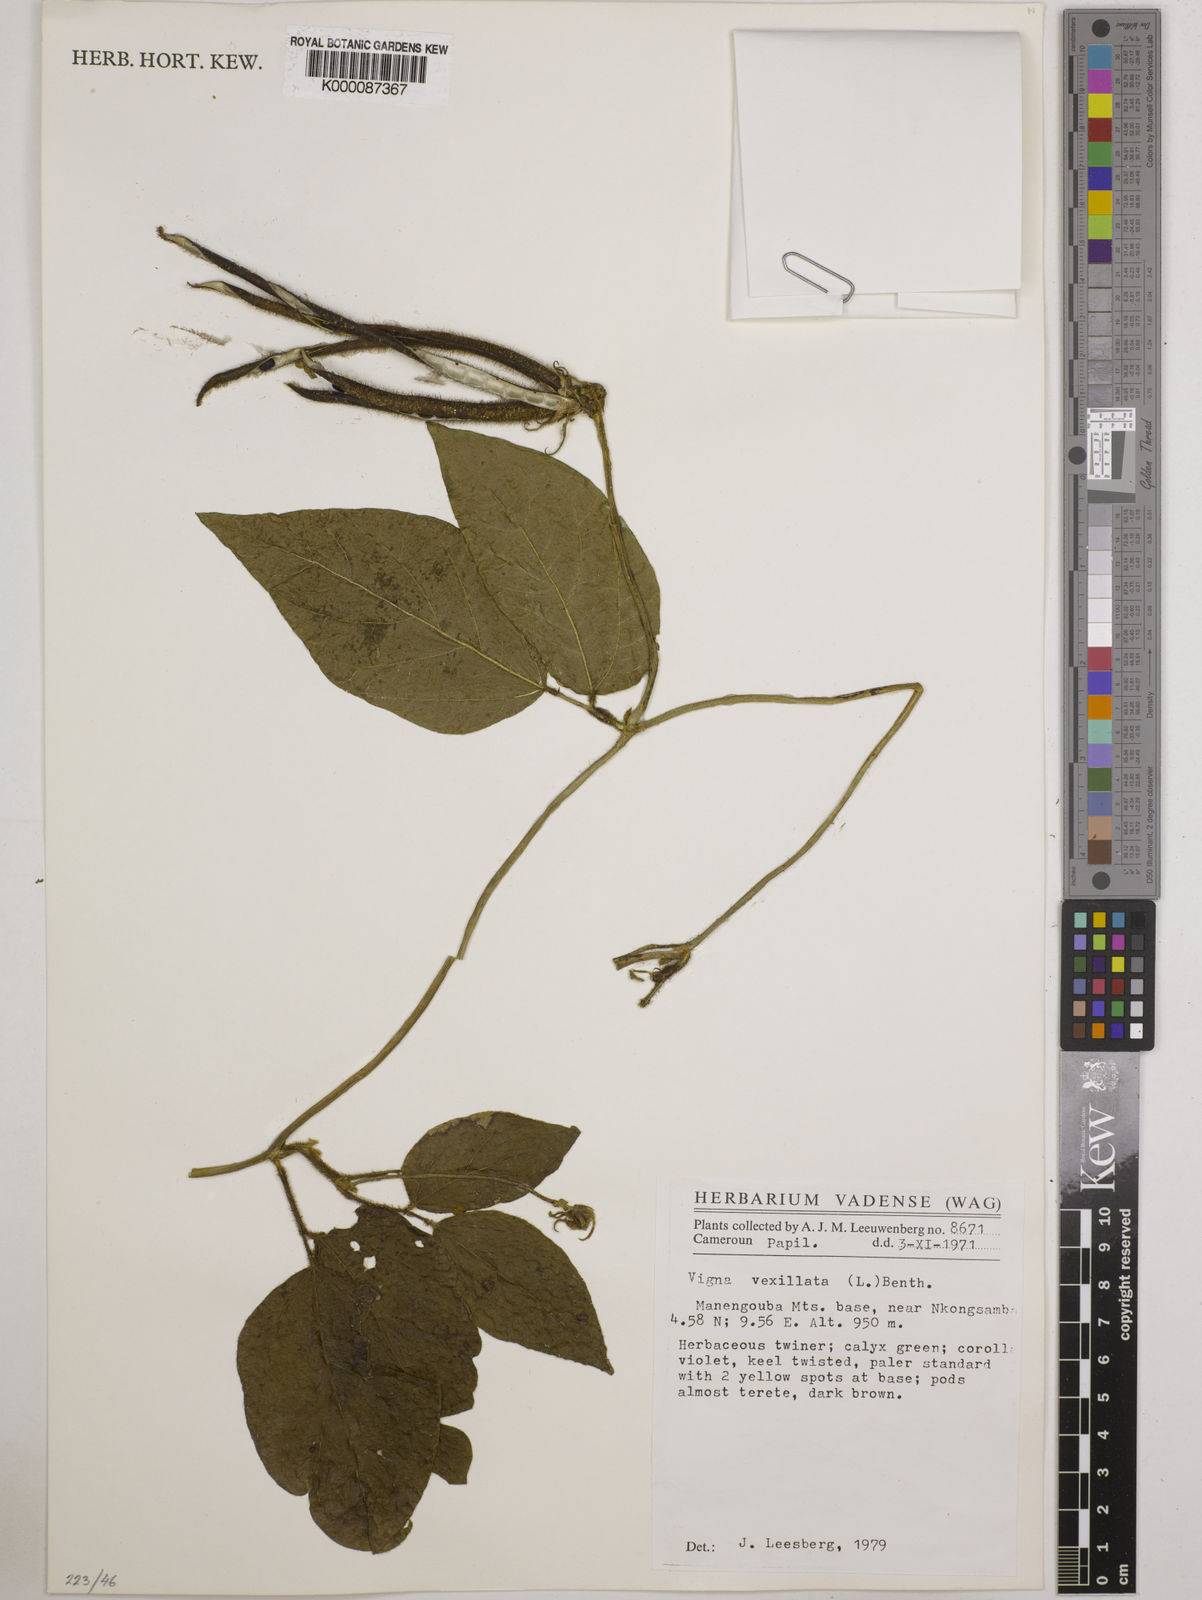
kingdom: Plantae
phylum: Tracheophyta
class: Magnoliopsida
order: Fabales
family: Fabaceae
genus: Vigna
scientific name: Vigna
